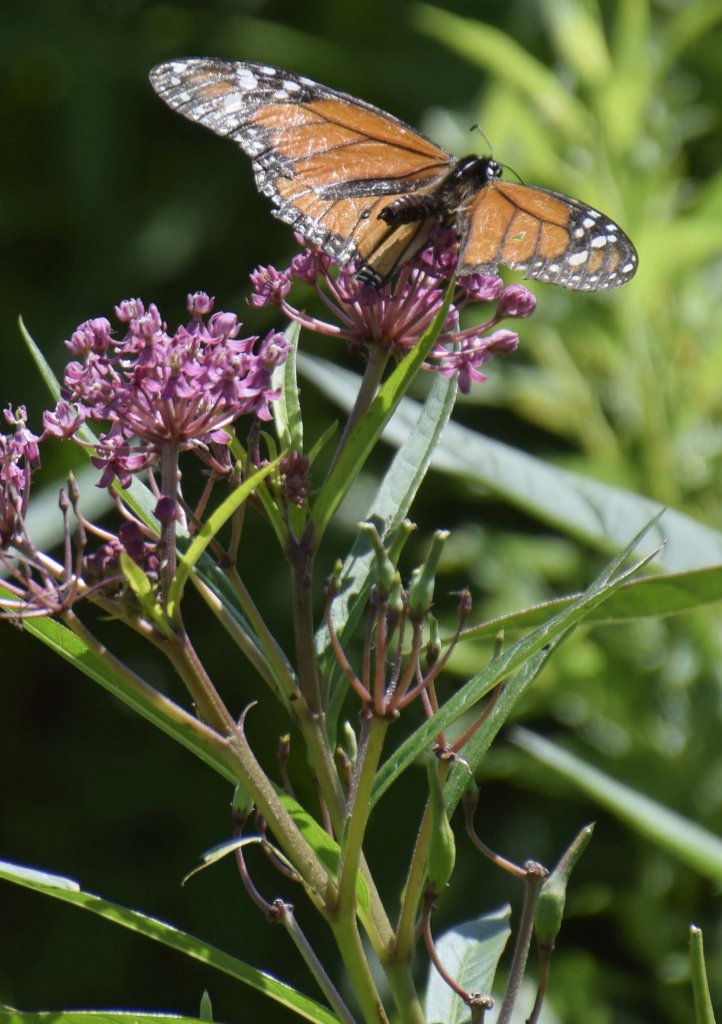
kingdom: Animalia
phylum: Arthropoda
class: Insecta
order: Lepidoptera
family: Nymphalidae
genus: Danaus
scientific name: Danaus plexippus
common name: Monarch
